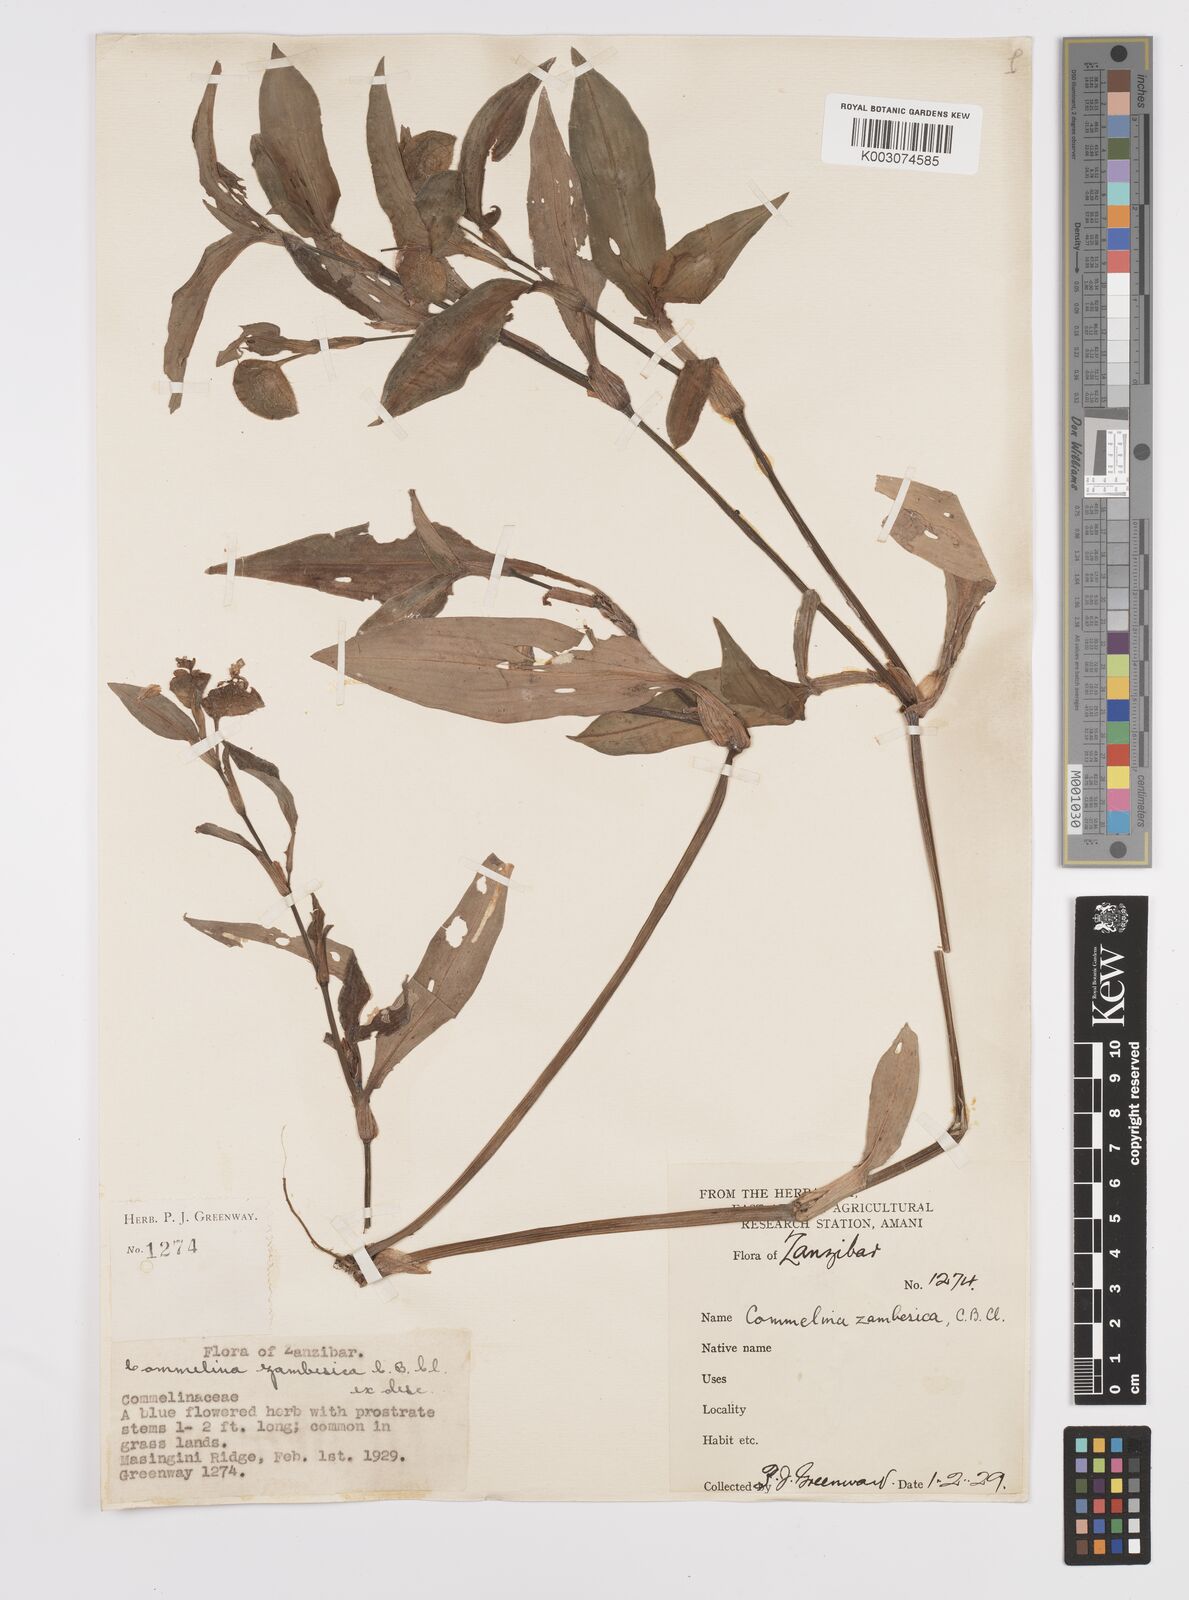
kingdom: Plantae
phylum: Tracheophyta
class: Liliopsida
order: Commelinales
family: Commelinaceae
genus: Commelina
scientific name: Commelina zambesica
